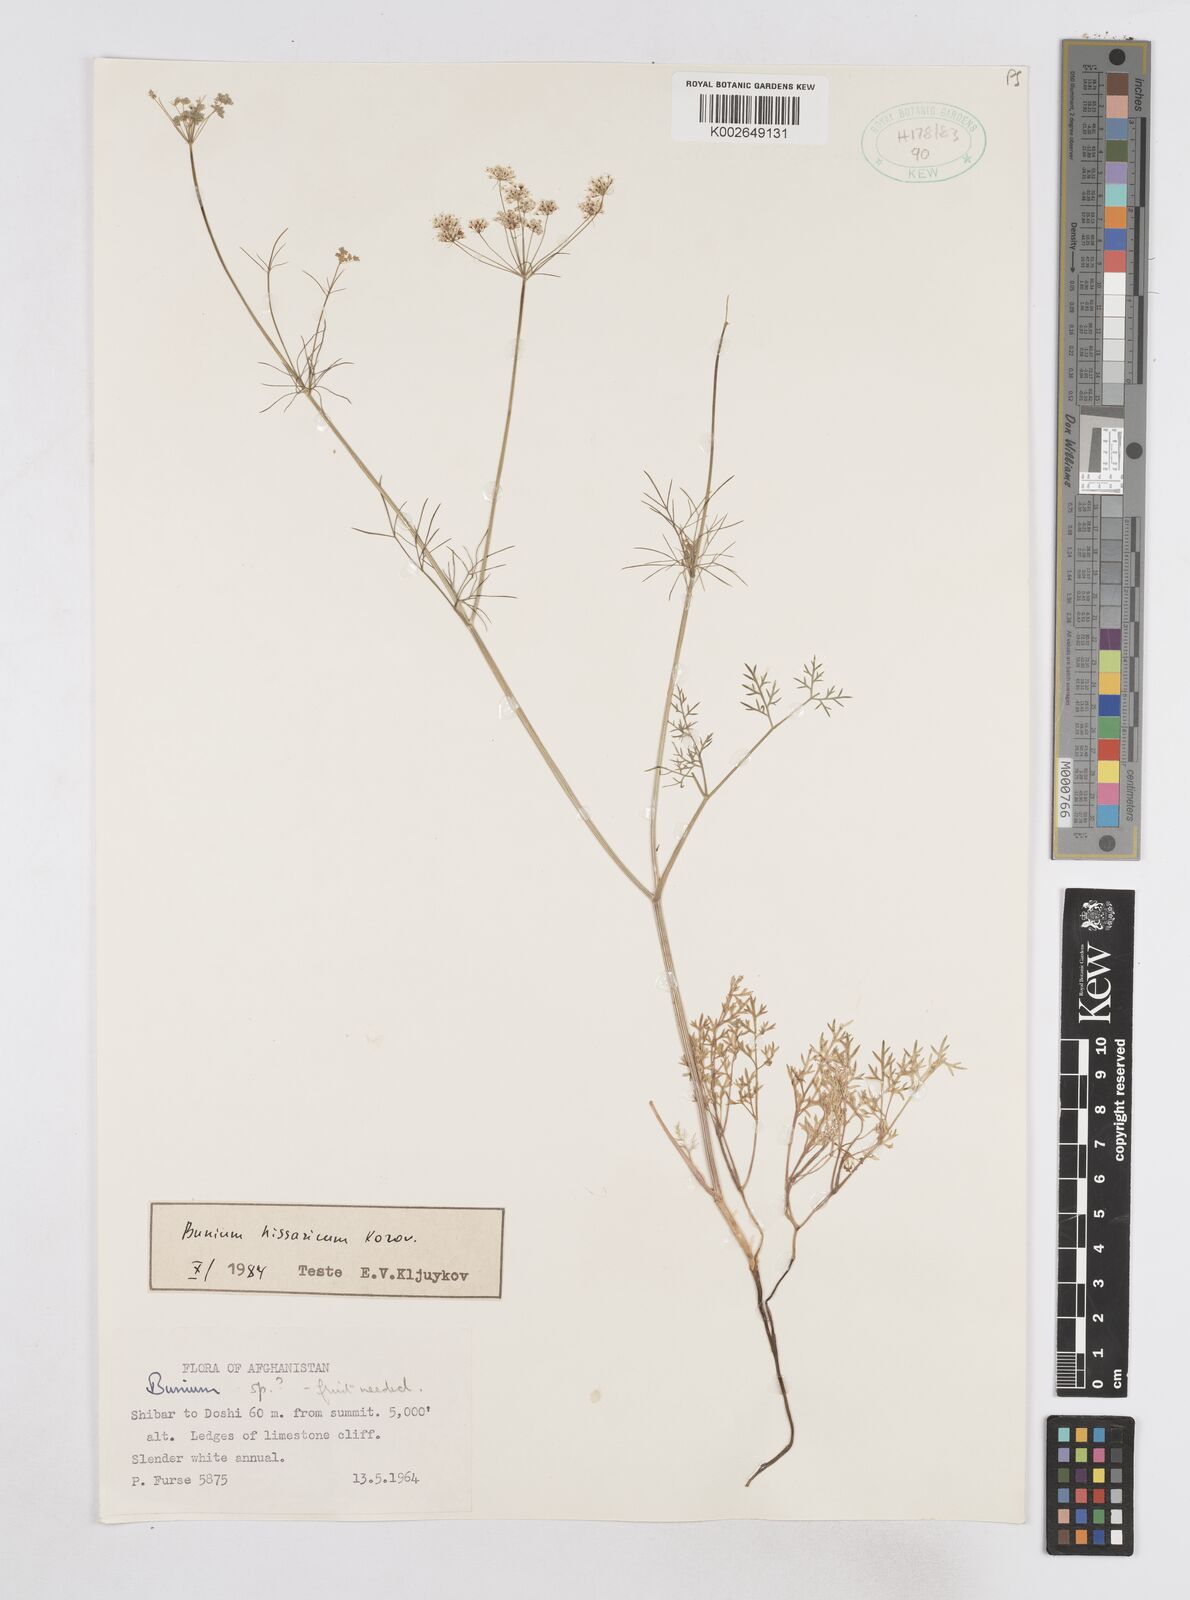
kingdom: Plantae
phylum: Tracheophyta
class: Magnoliopsida
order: Apiales
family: Apiaceae
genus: Elwendia
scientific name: Elwendia hissarica
